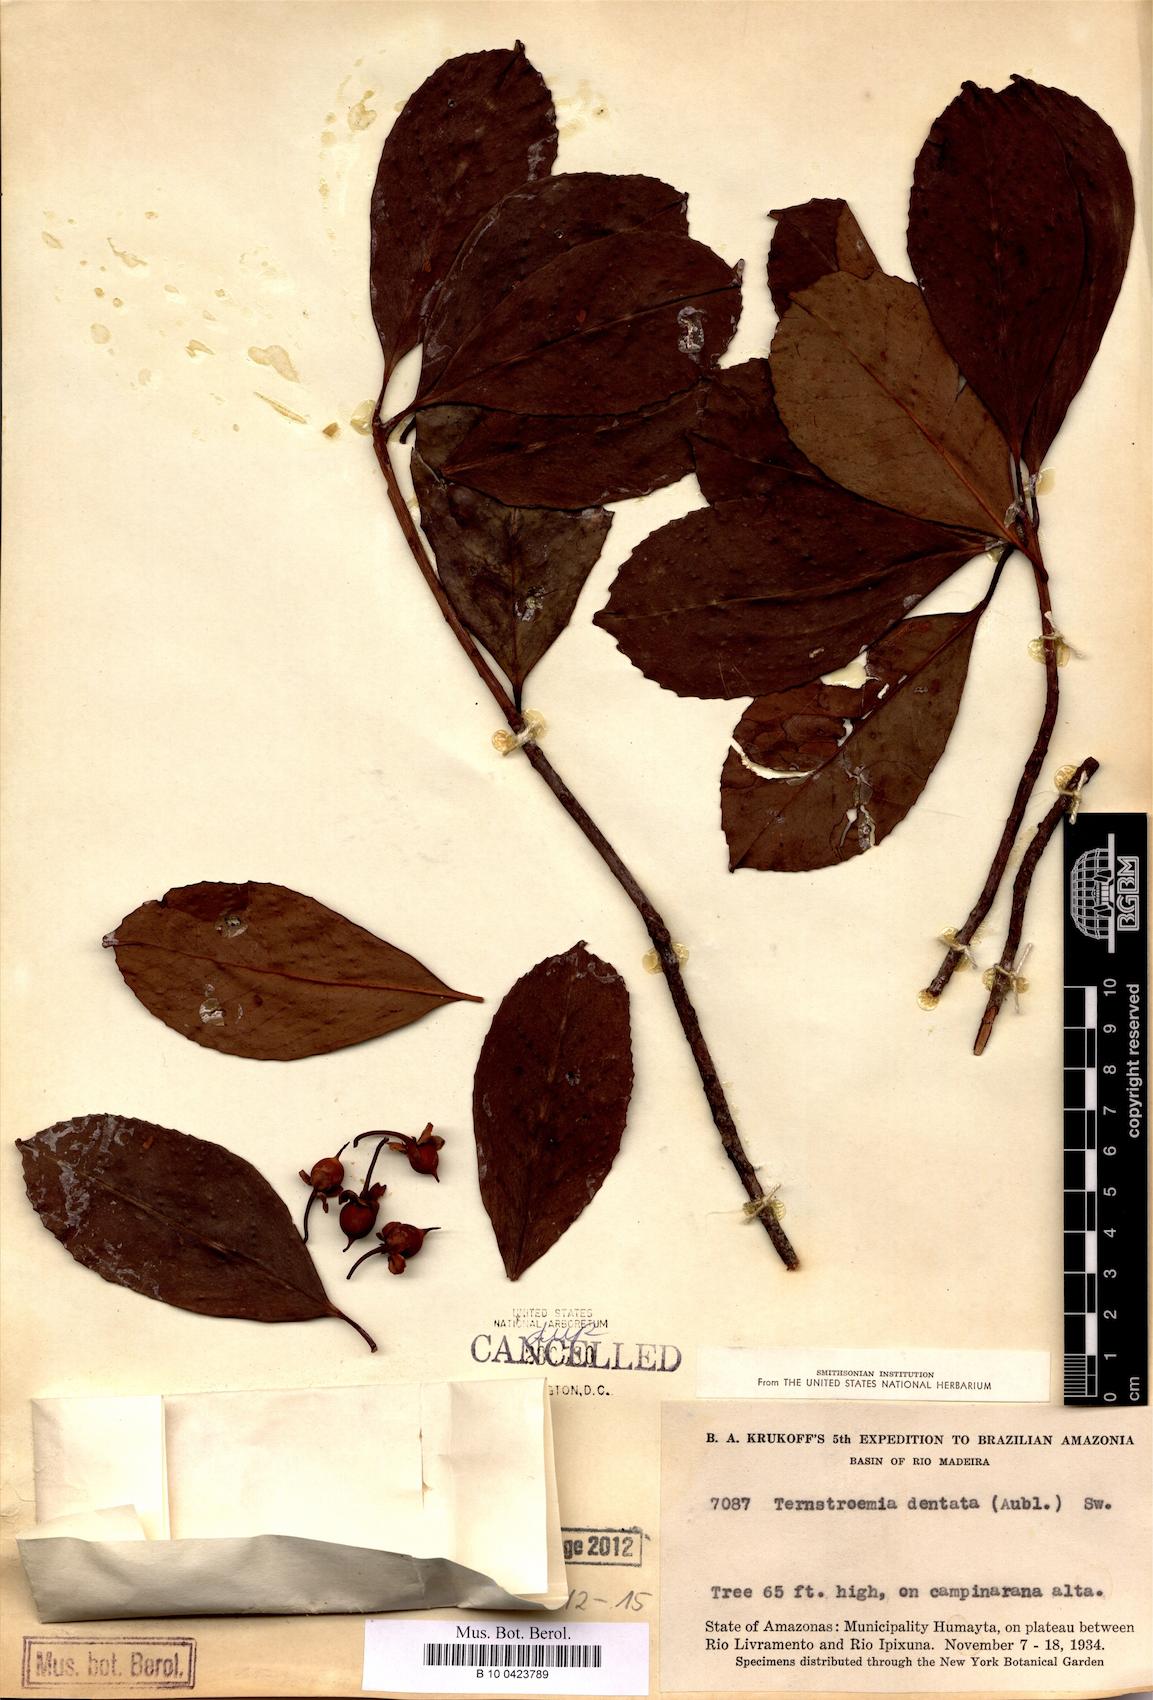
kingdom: Plantae
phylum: Tracheophyta
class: Magnoliopsida
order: Ericales
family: Pentaphylacaceae
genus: Ternstroemia
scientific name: Ternstroemia dentata
